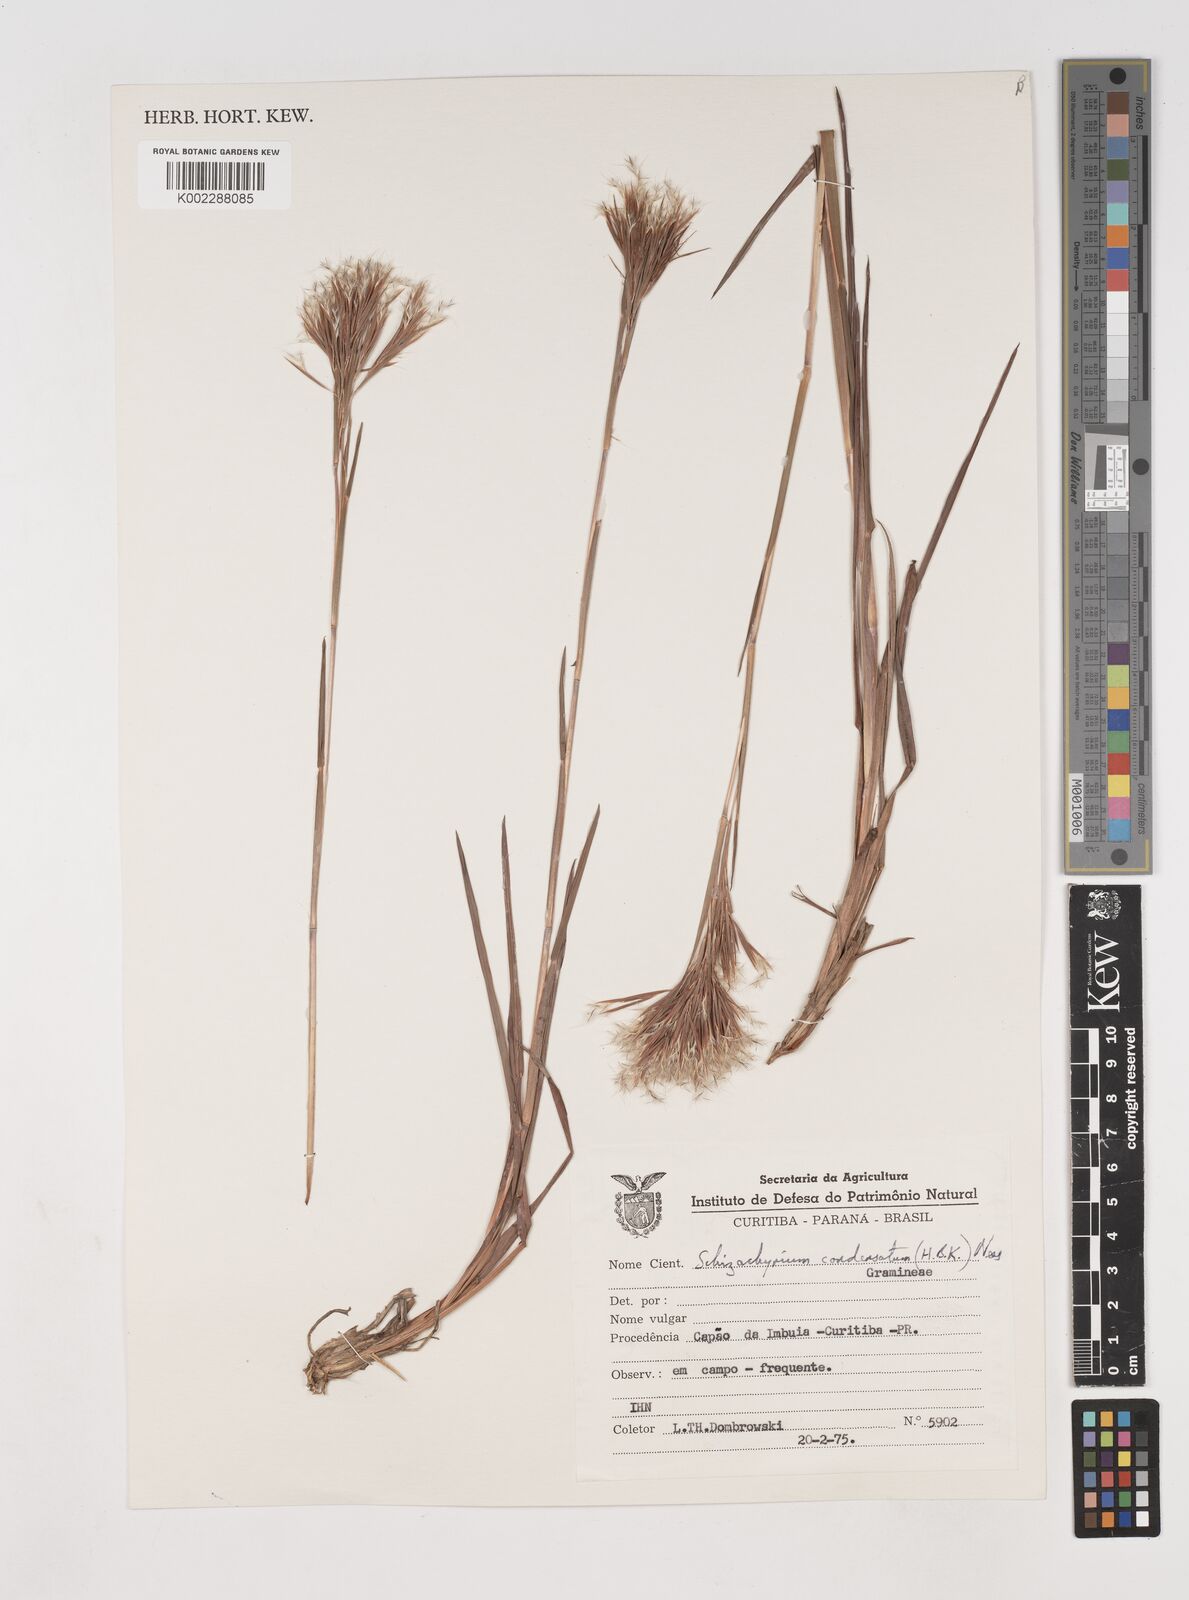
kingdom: Plantae
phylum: Tracheophyta
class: Liliopsida
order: Poales
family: Poaceae
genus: Schizachyrium
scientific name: Schizachyrium condensatum
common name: Bush beardgrass
